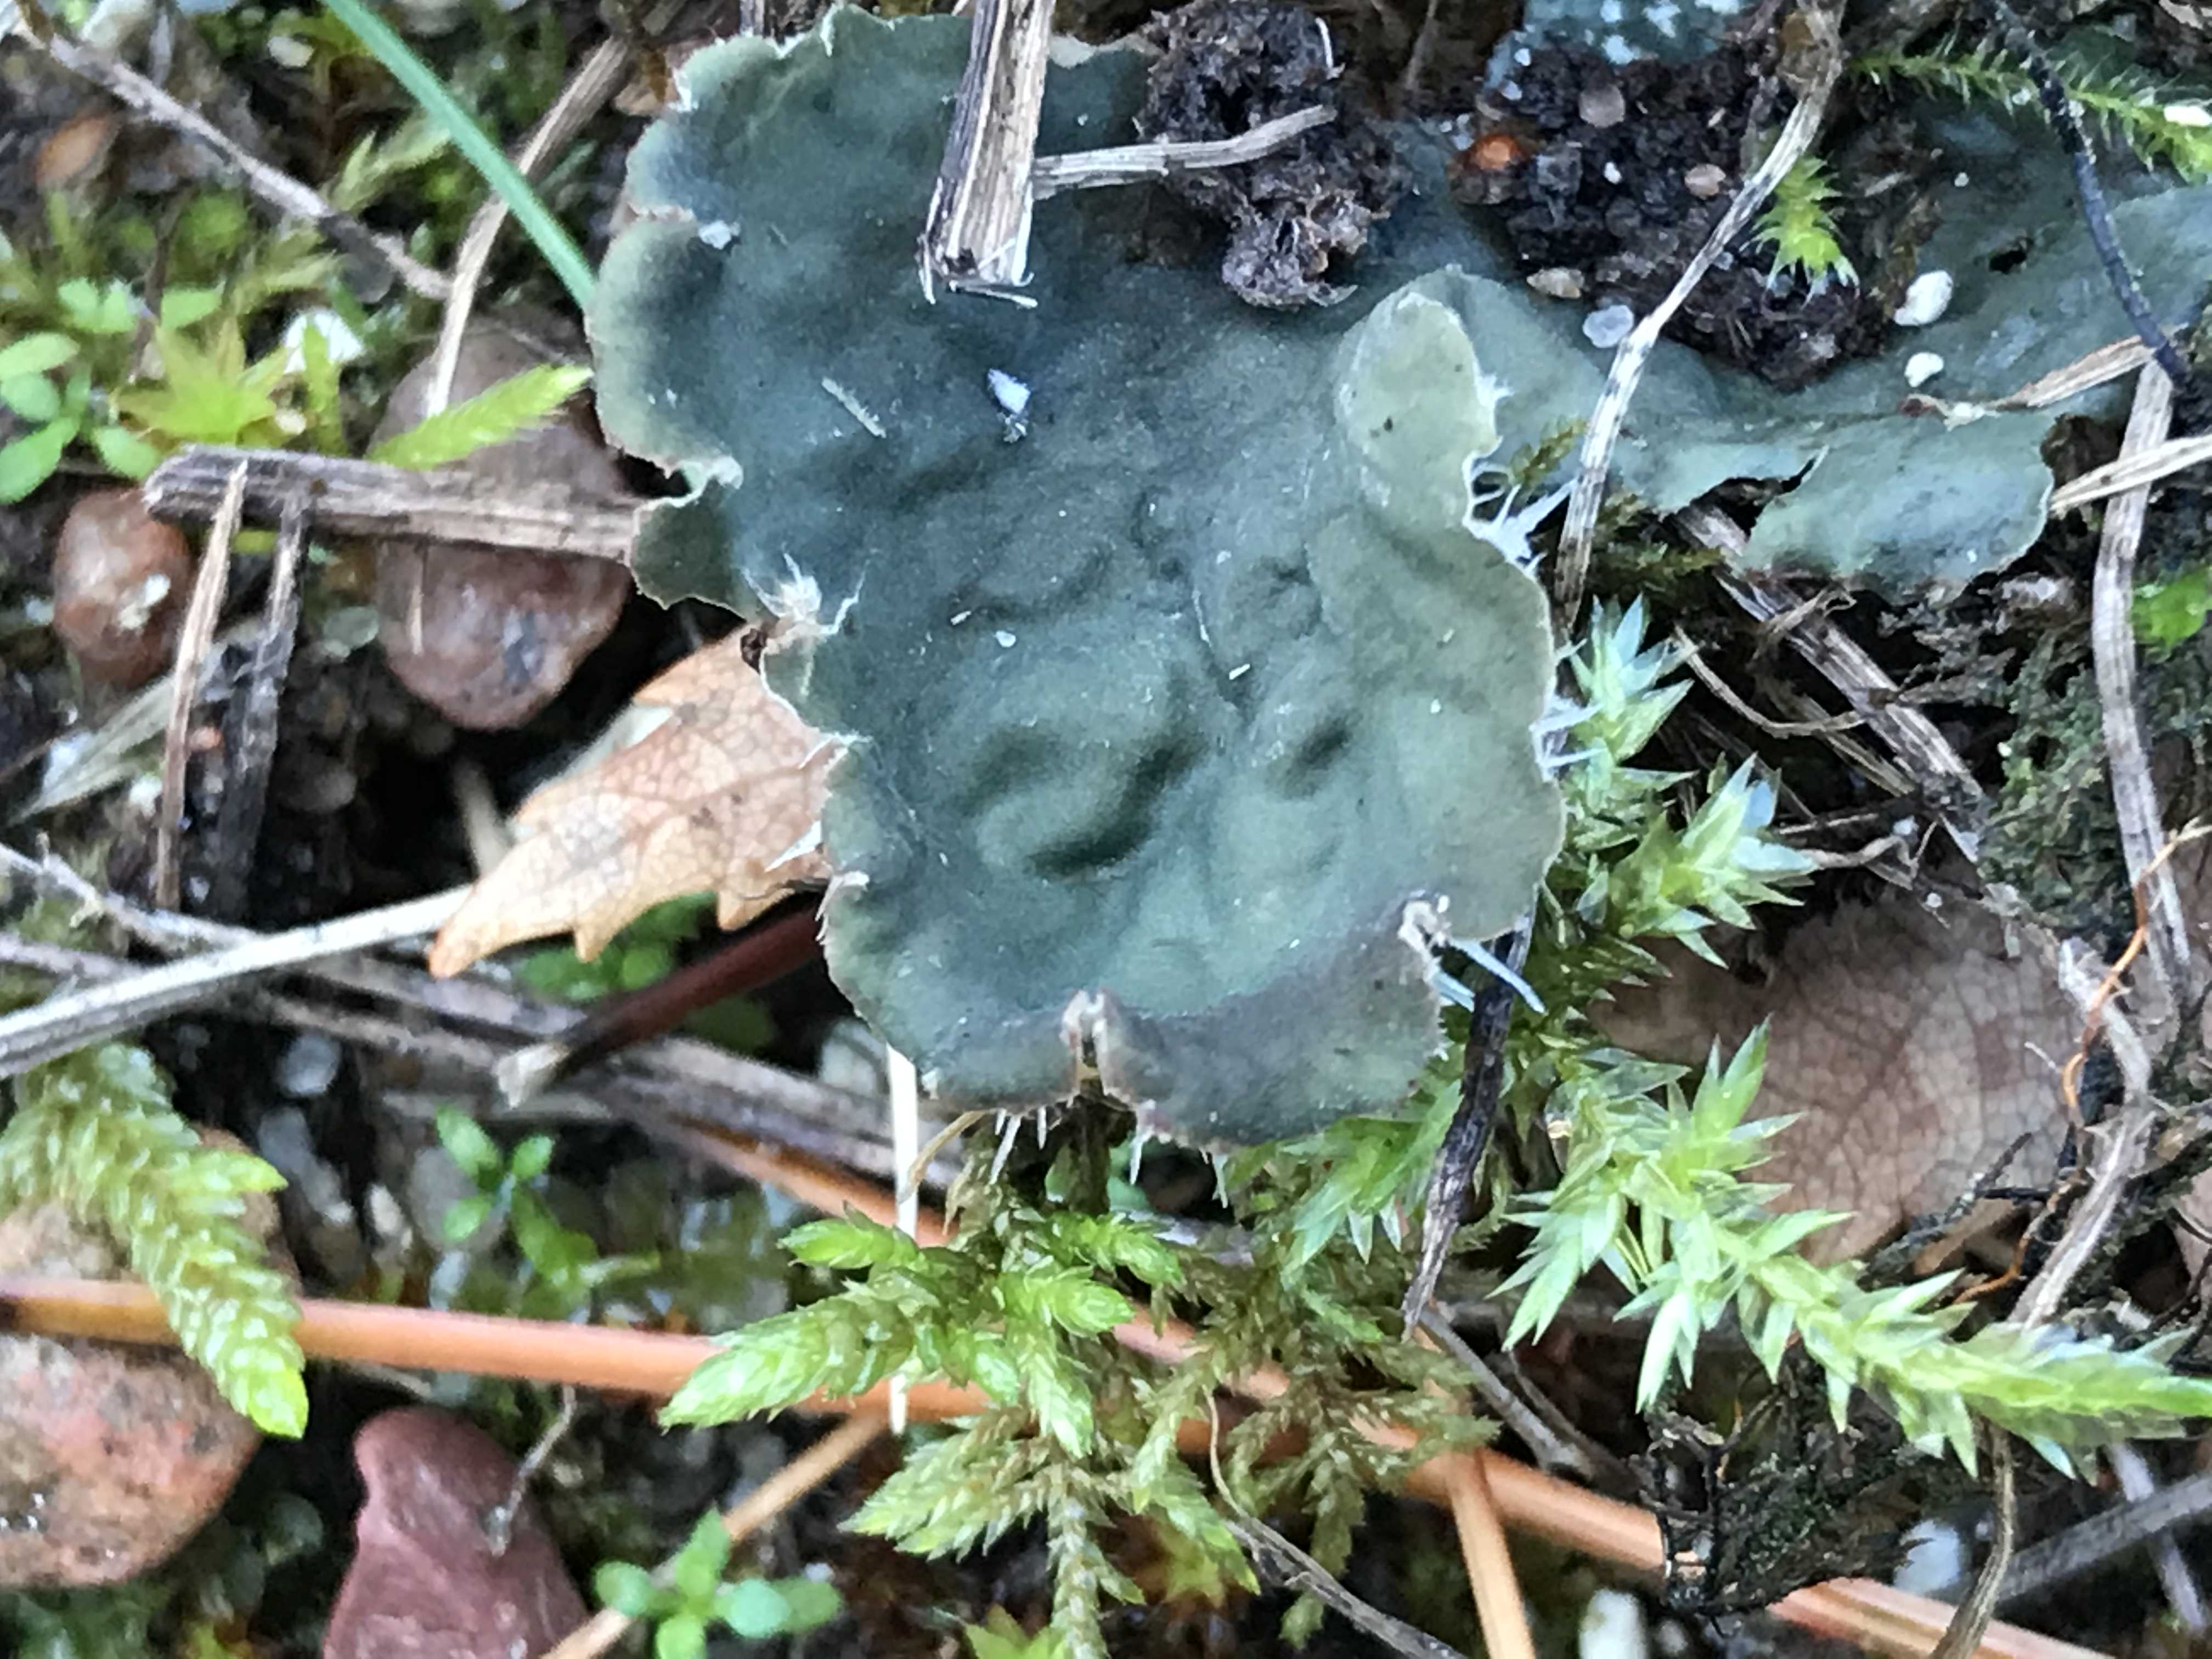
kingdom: Fungi
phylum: Ascomycota
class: Lecanoromycetes
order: Peltigerales
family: Peltigeraceae
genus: Peltigera
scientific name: Peltigera membranacea
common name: tynd skjoldlav
